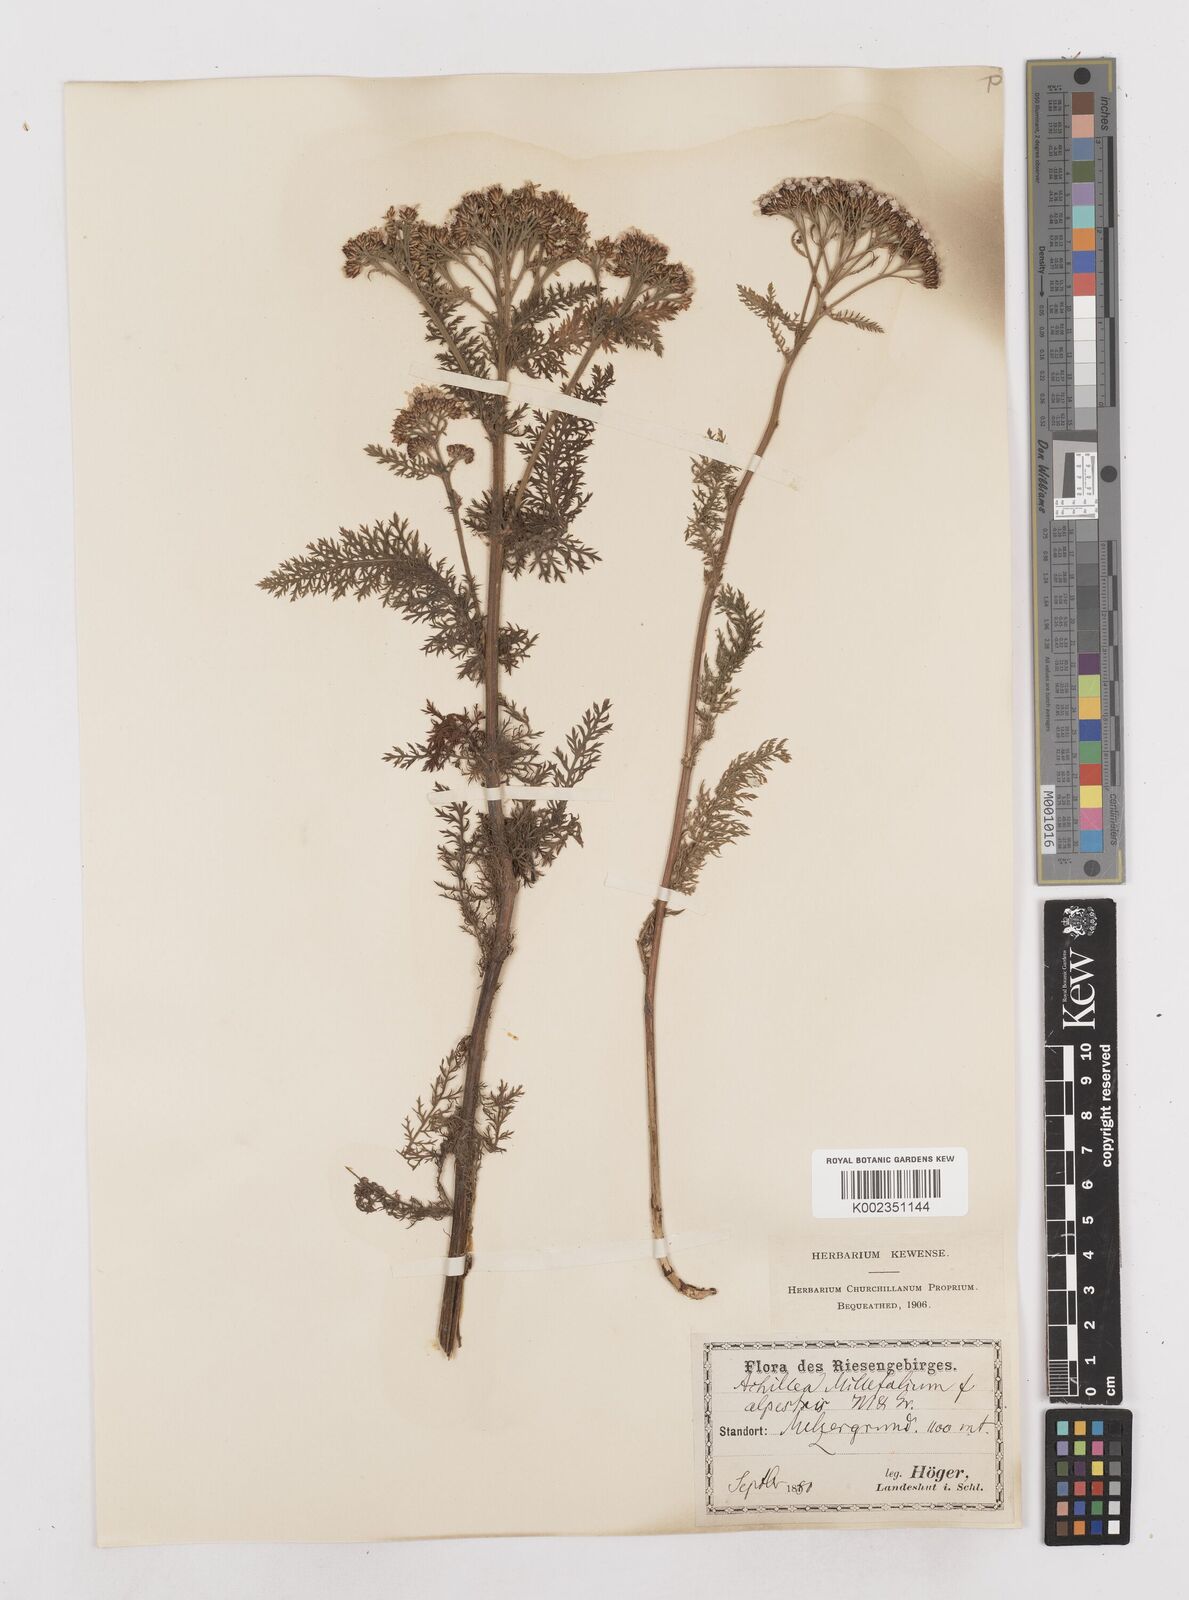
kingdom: Plantae
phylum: Tracheophyta
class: Magnoliopsida
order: Asterales
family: Asteraceae
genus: Achillea
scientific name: Achillea millefolium
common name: Yarrow
